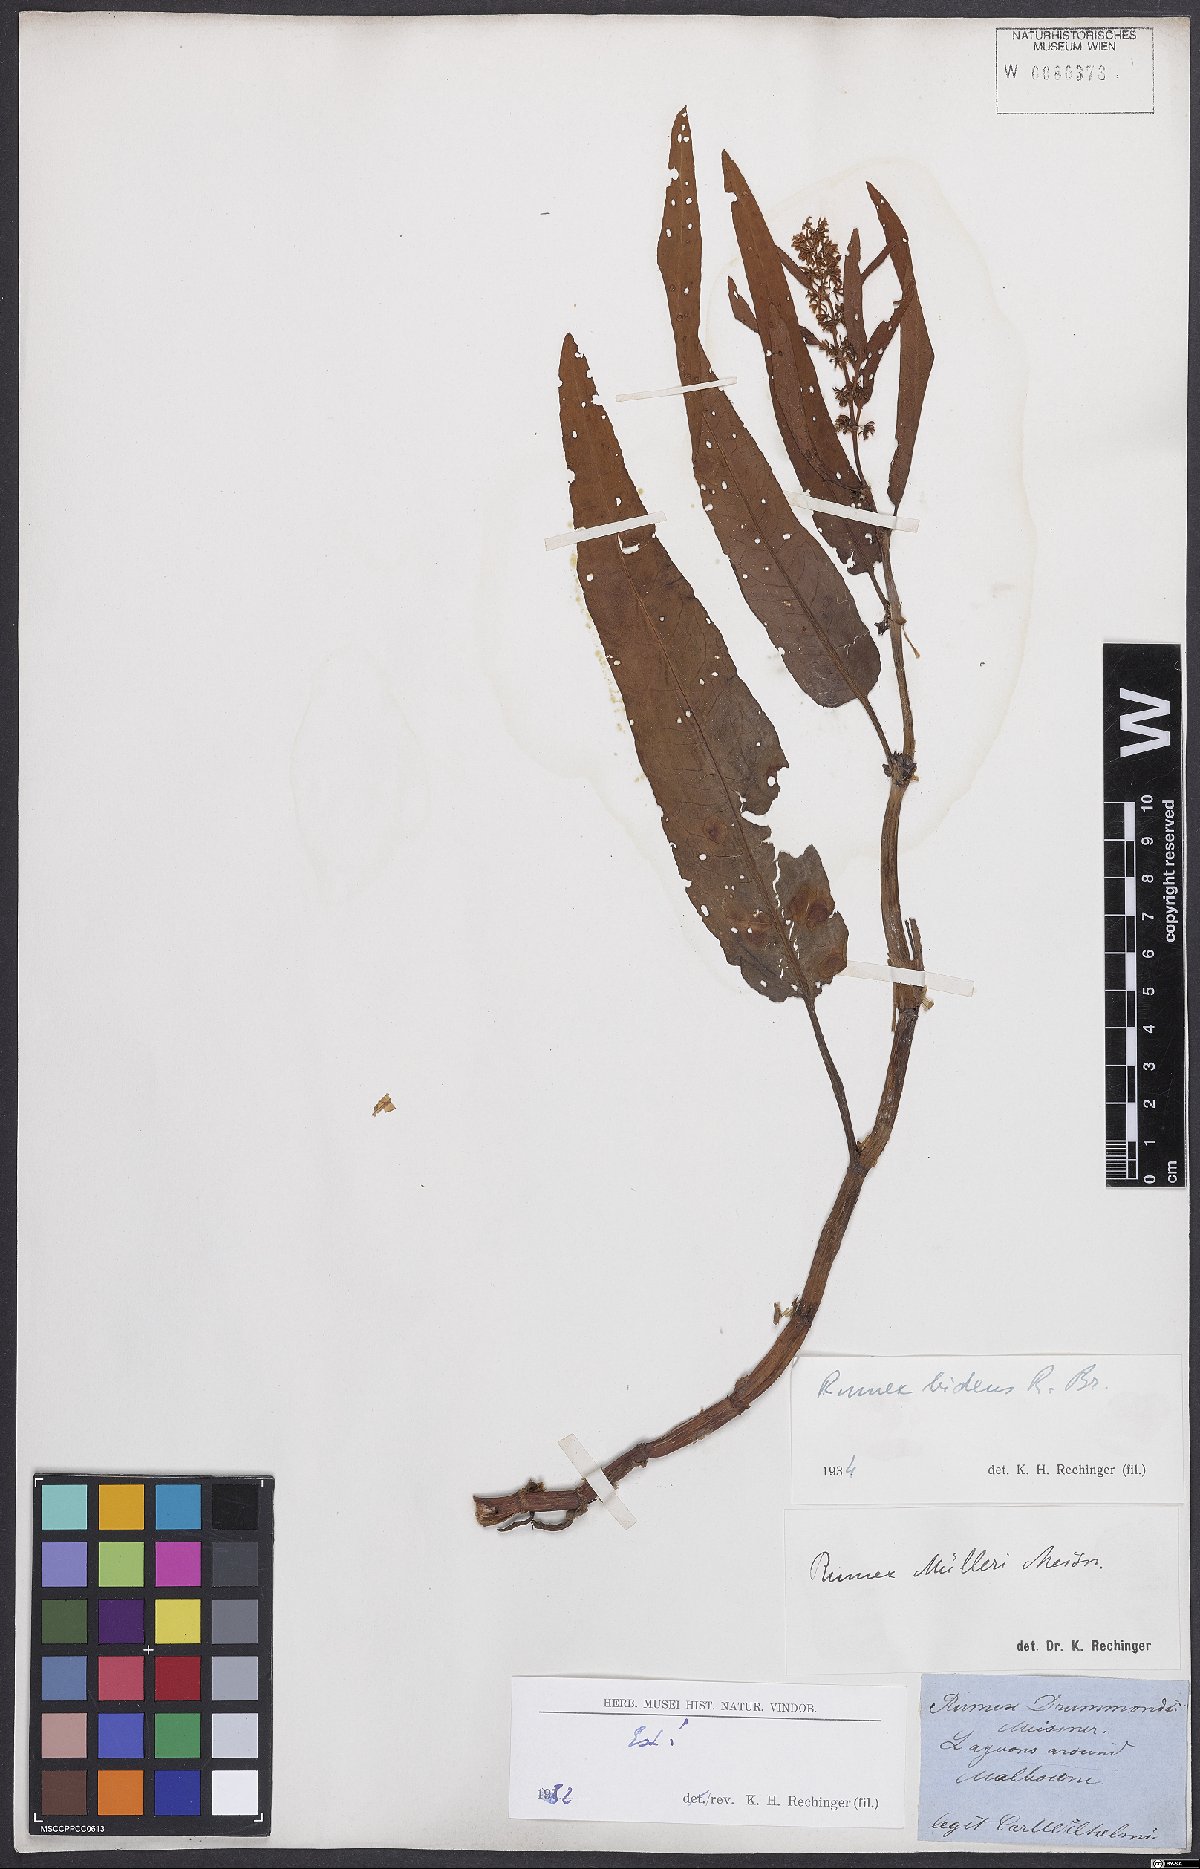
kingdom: Plantae
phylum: Tracheophyta
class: Magnoliopsida
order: Caryophyllales
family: Polygonaceae
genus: Rumex
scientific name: Rumex
